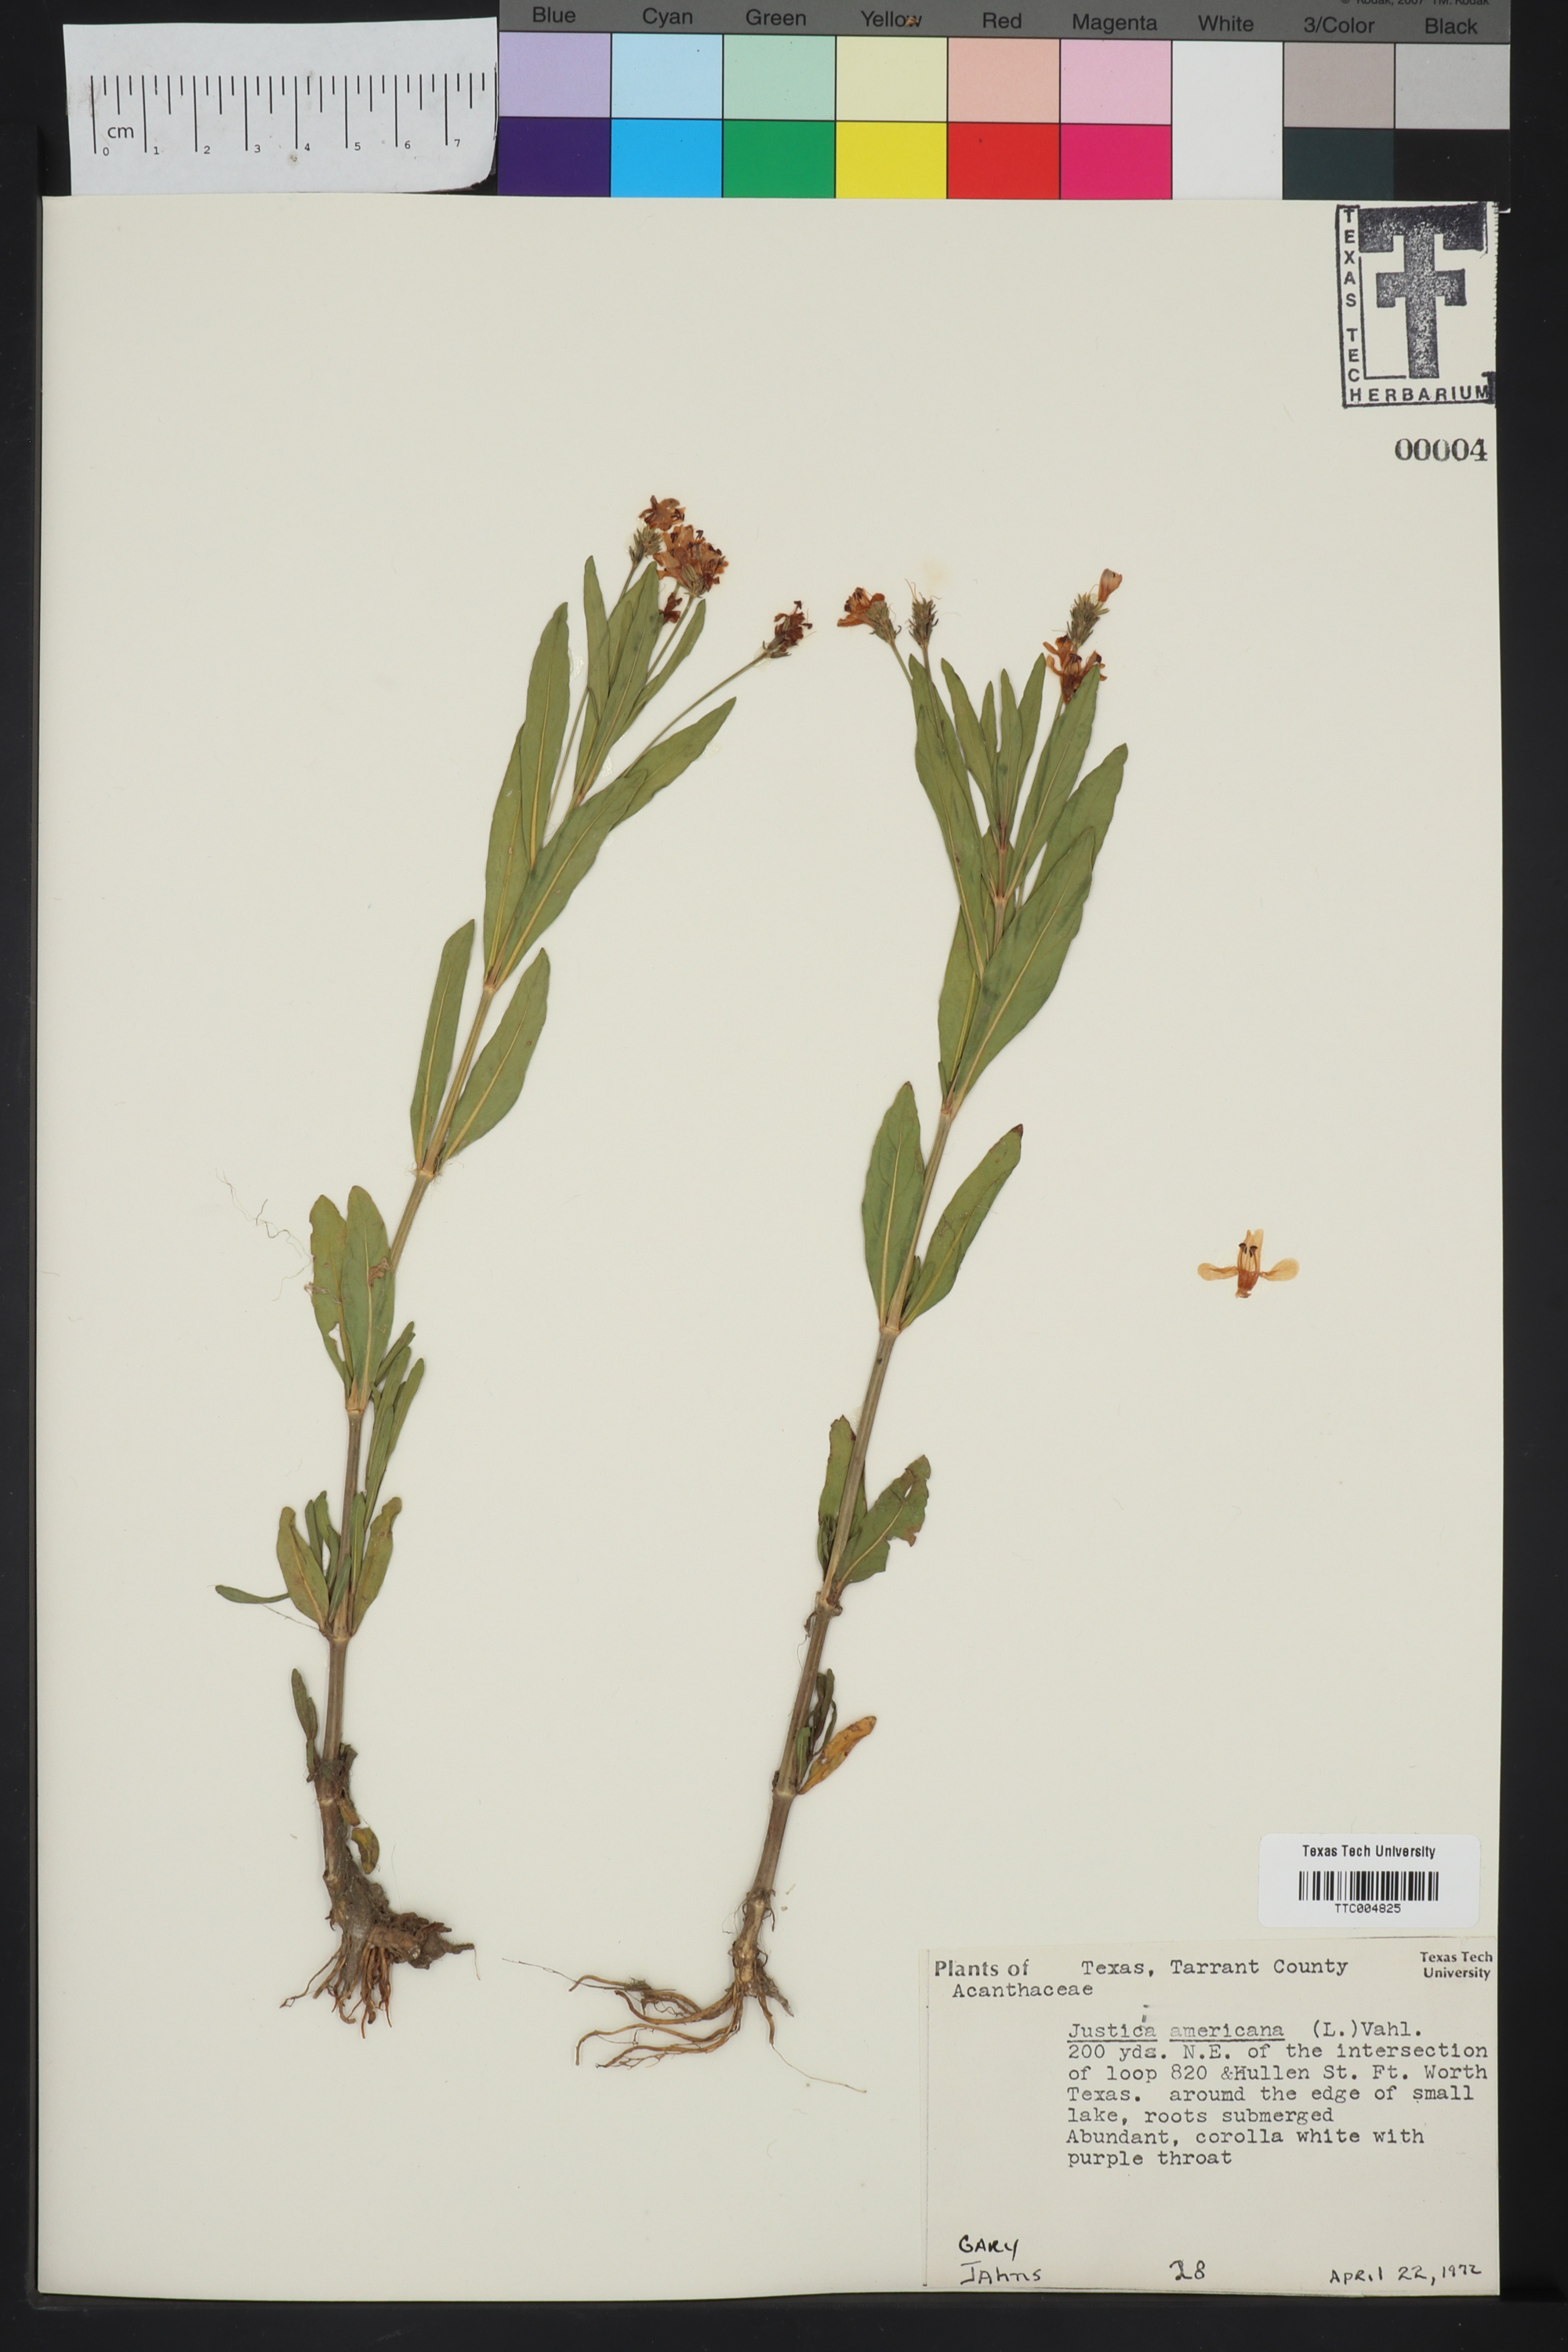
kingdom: Plantae
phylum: Tracheophyta
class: Magnoliopsida
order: Lamiales
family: Acanthaceae
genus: Dianthera
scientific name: Dianthera americana
